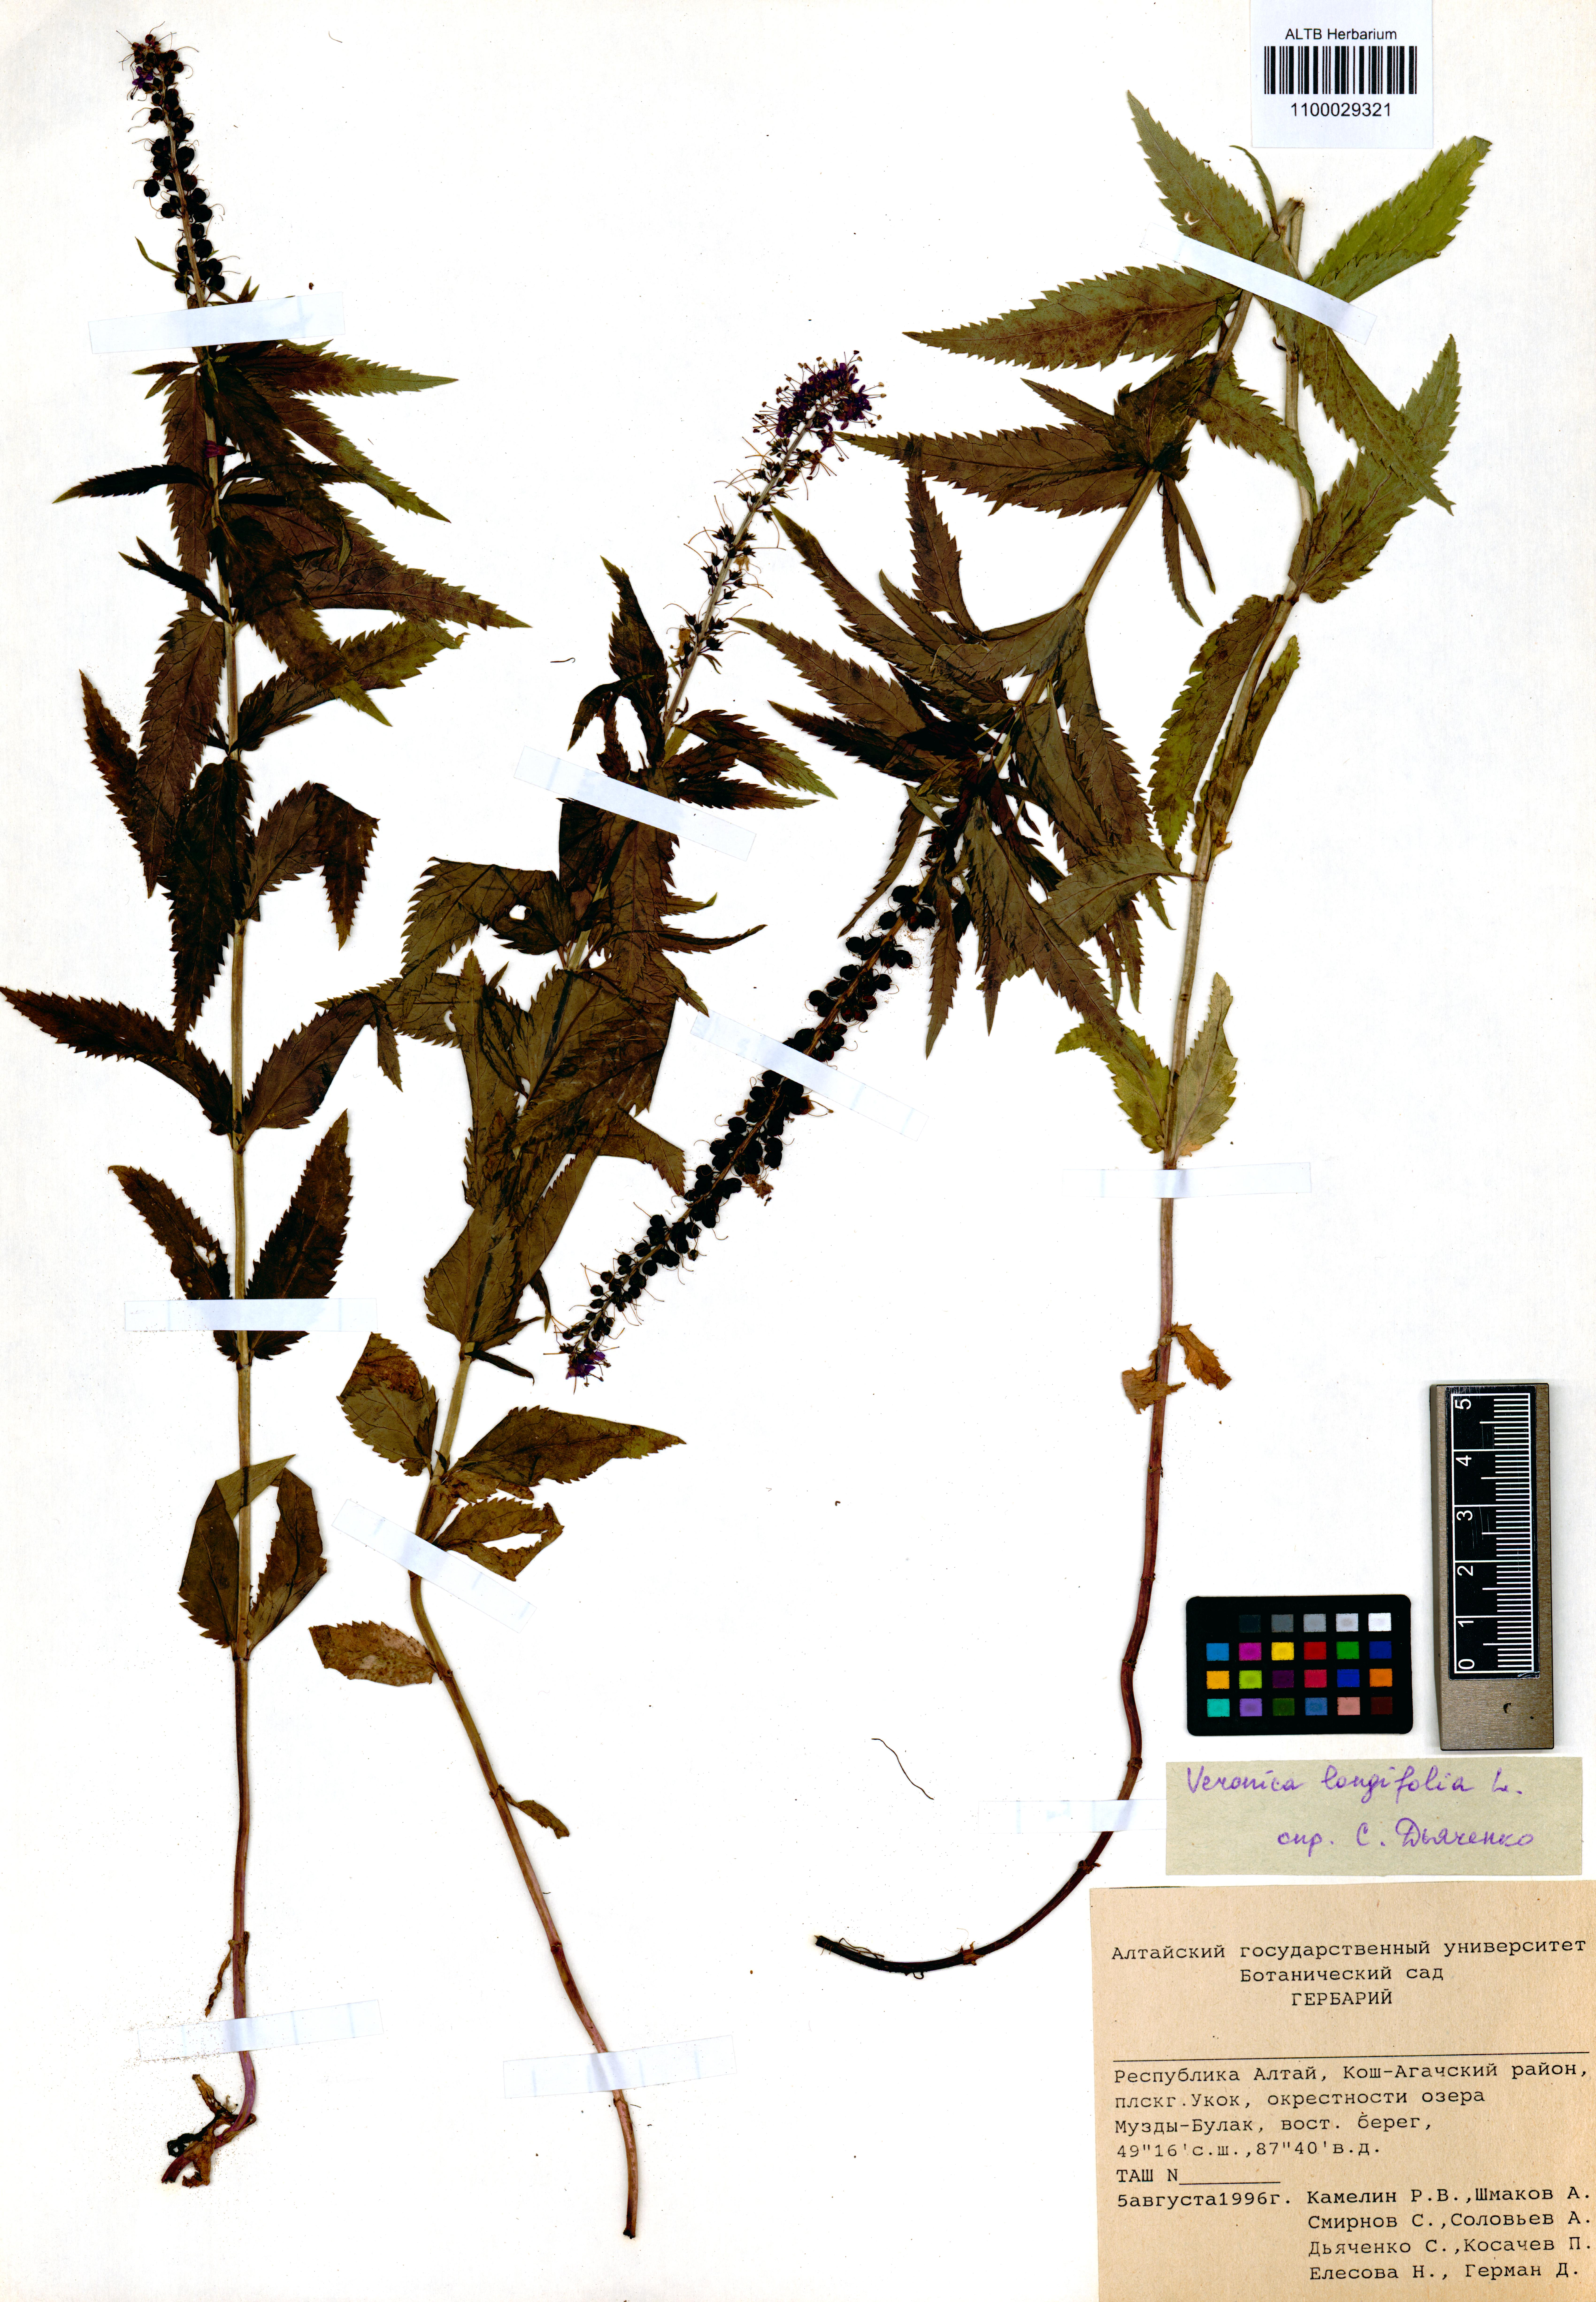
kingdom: Plantae
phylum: Tracheophyta
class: Magnoliopsida
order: Lamiales
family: Plantaginaceae
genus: Veronica
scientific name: Veronica longifolia
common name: Garden speedwell
